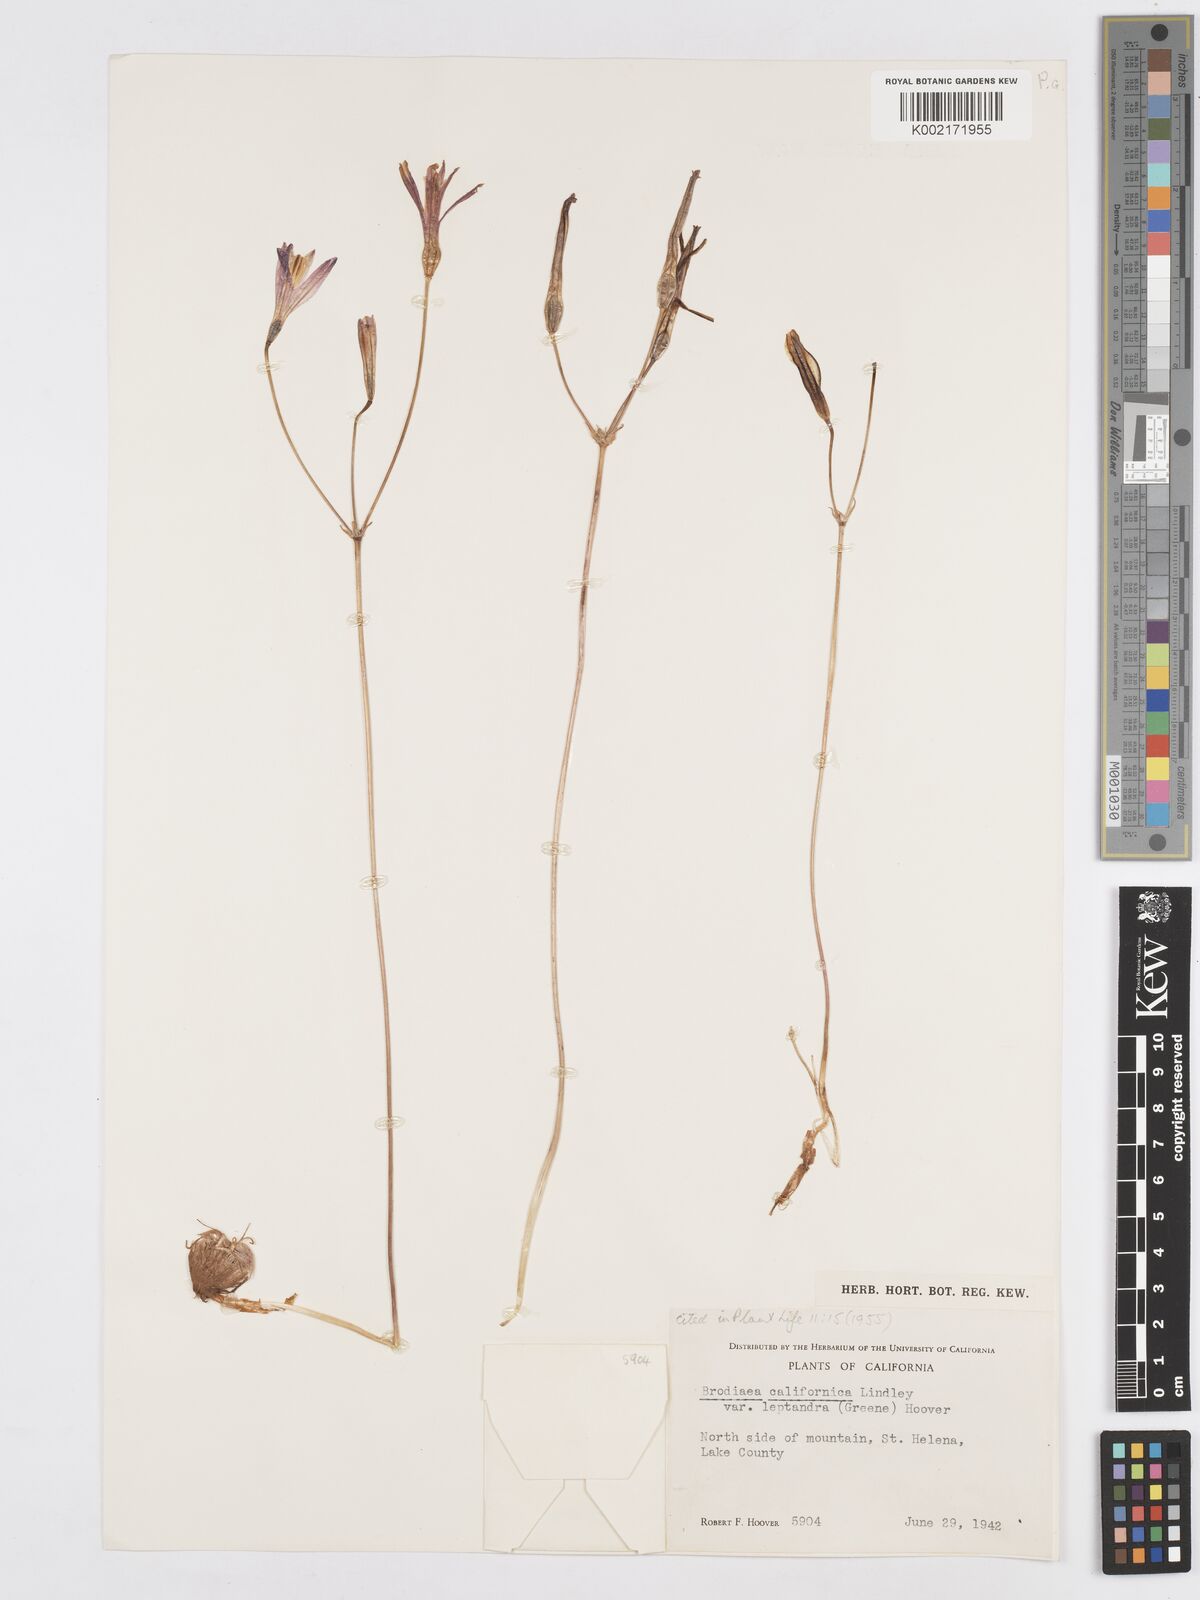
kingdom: Plantae
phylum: Tracheophyta
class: Liliopsida
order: Asparagales
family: Asparagaceae
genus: Brodiaea
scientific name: Brodiaea californica
